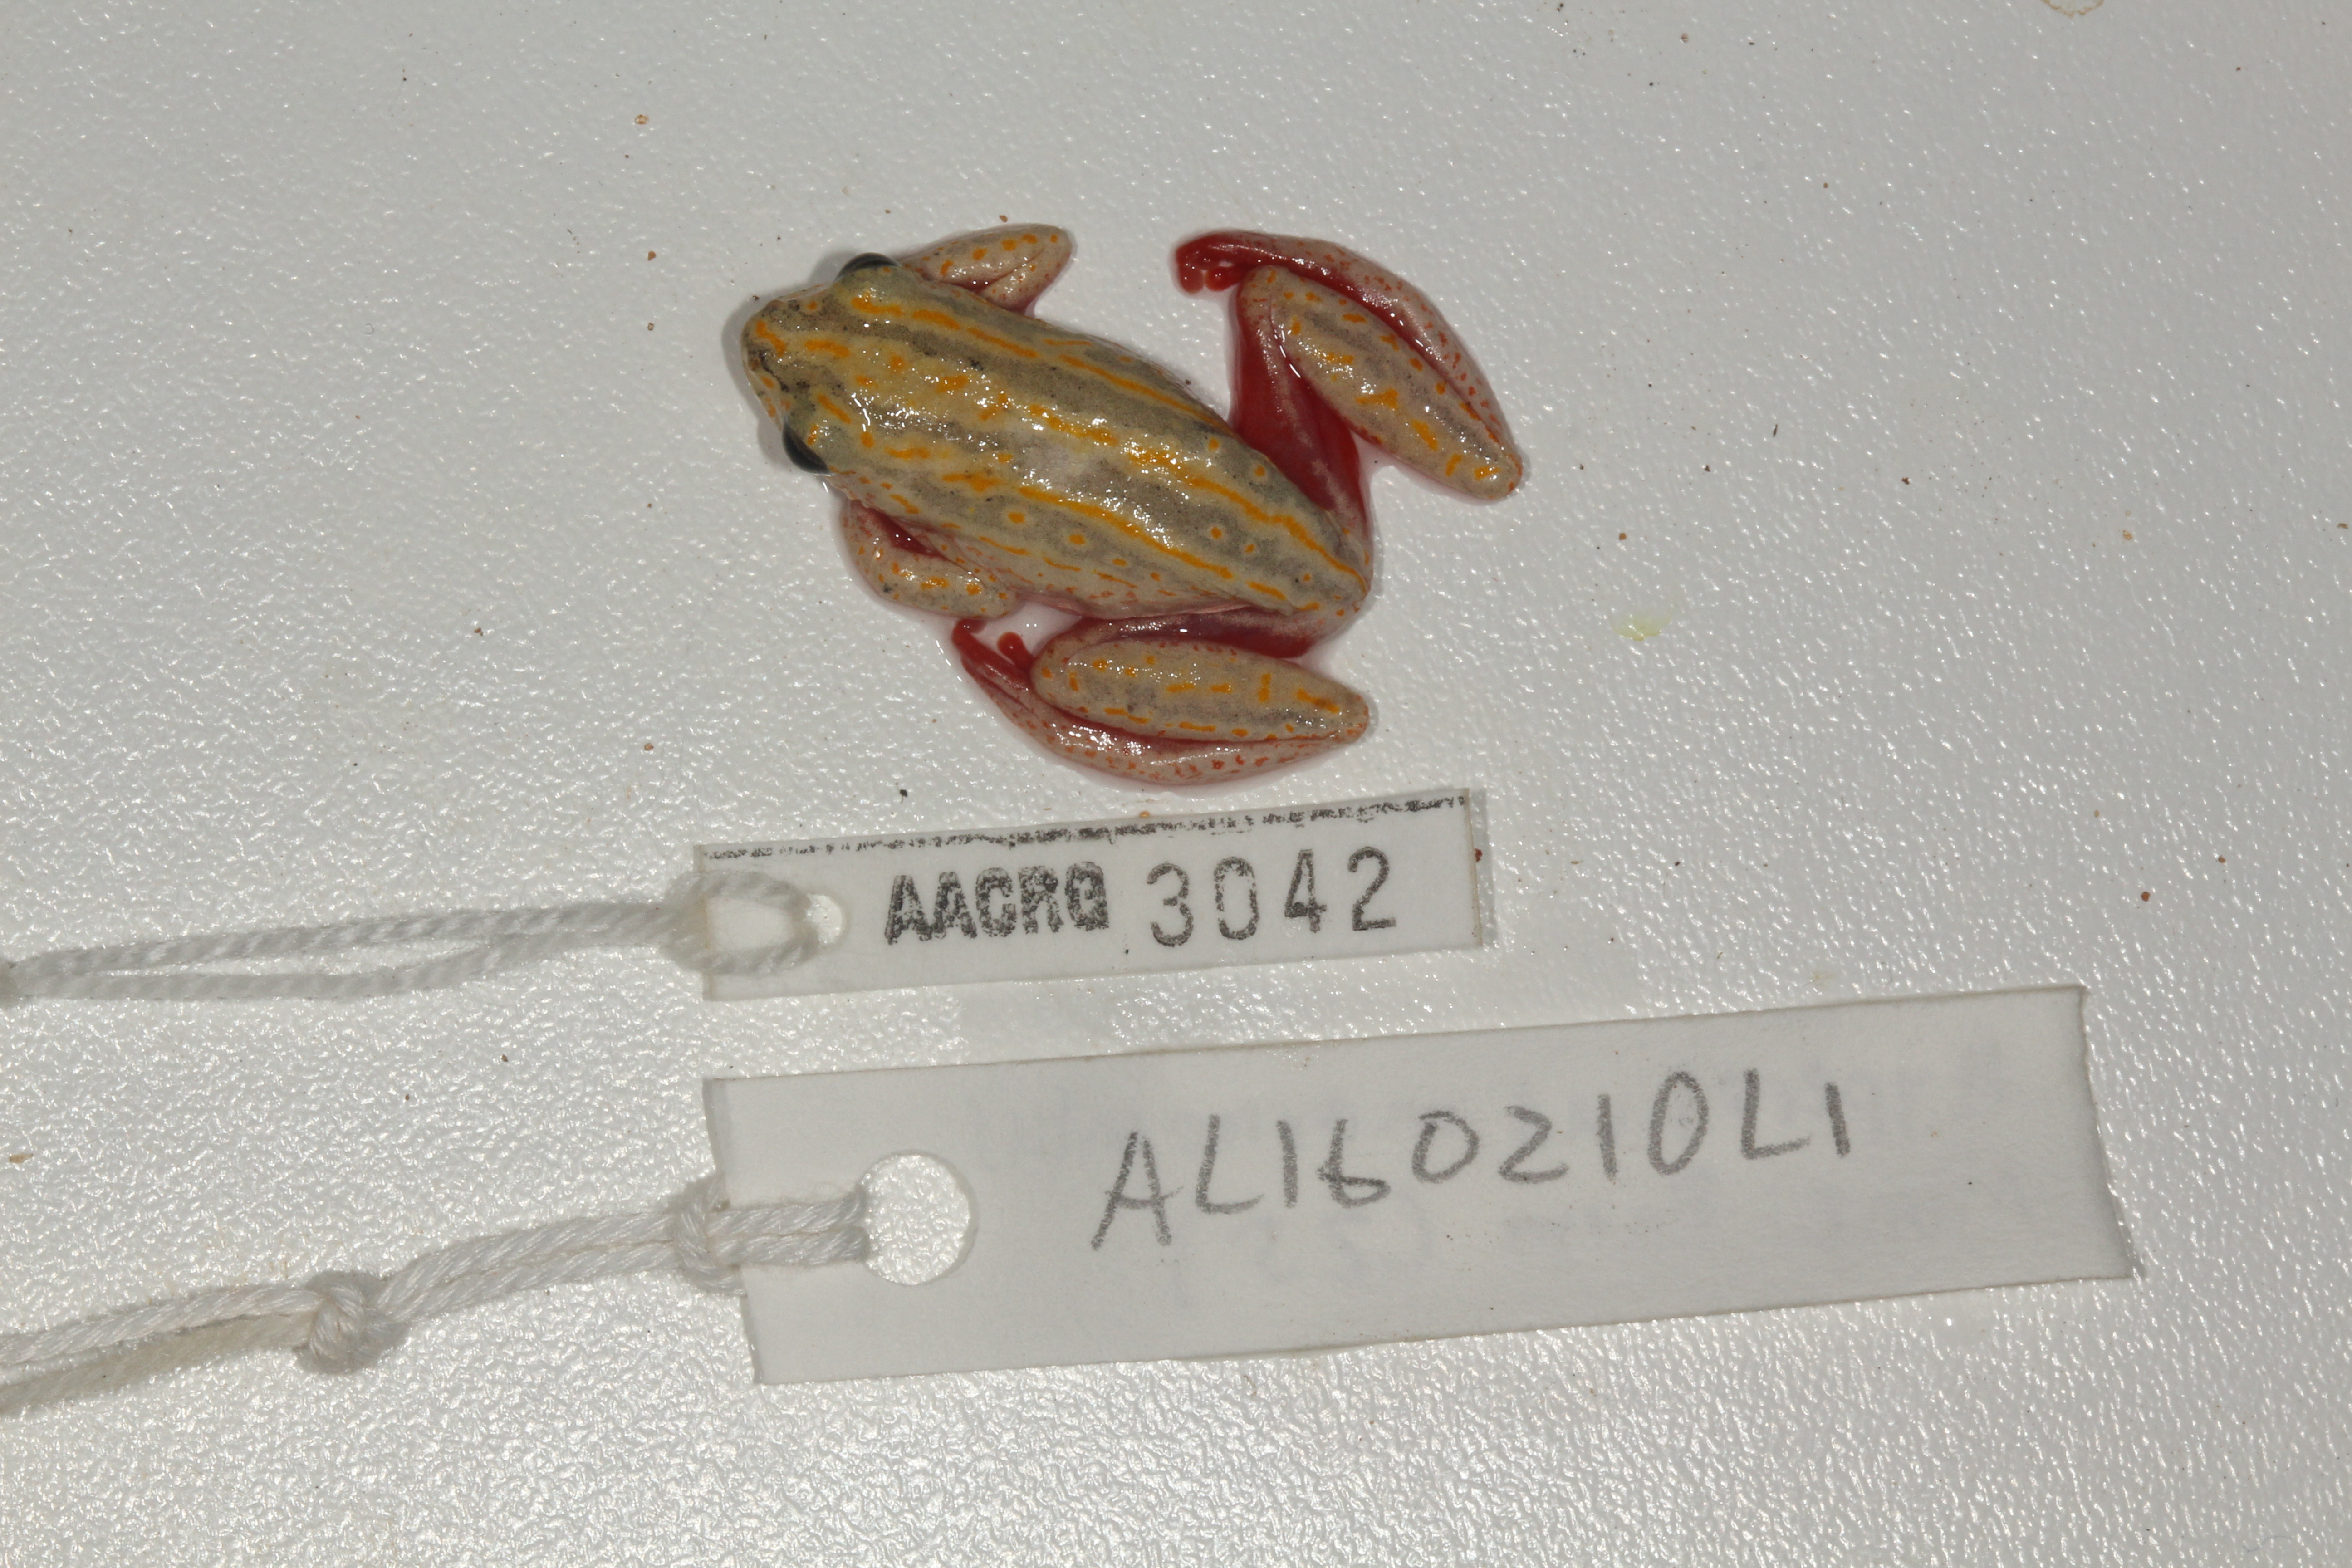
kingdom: Animalia
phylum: Chordata
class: Amphibia
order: Anura
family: Hyperoliidae
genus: Hyperolius
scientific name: Hyperolius marmoratus
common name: Painted reed frog
